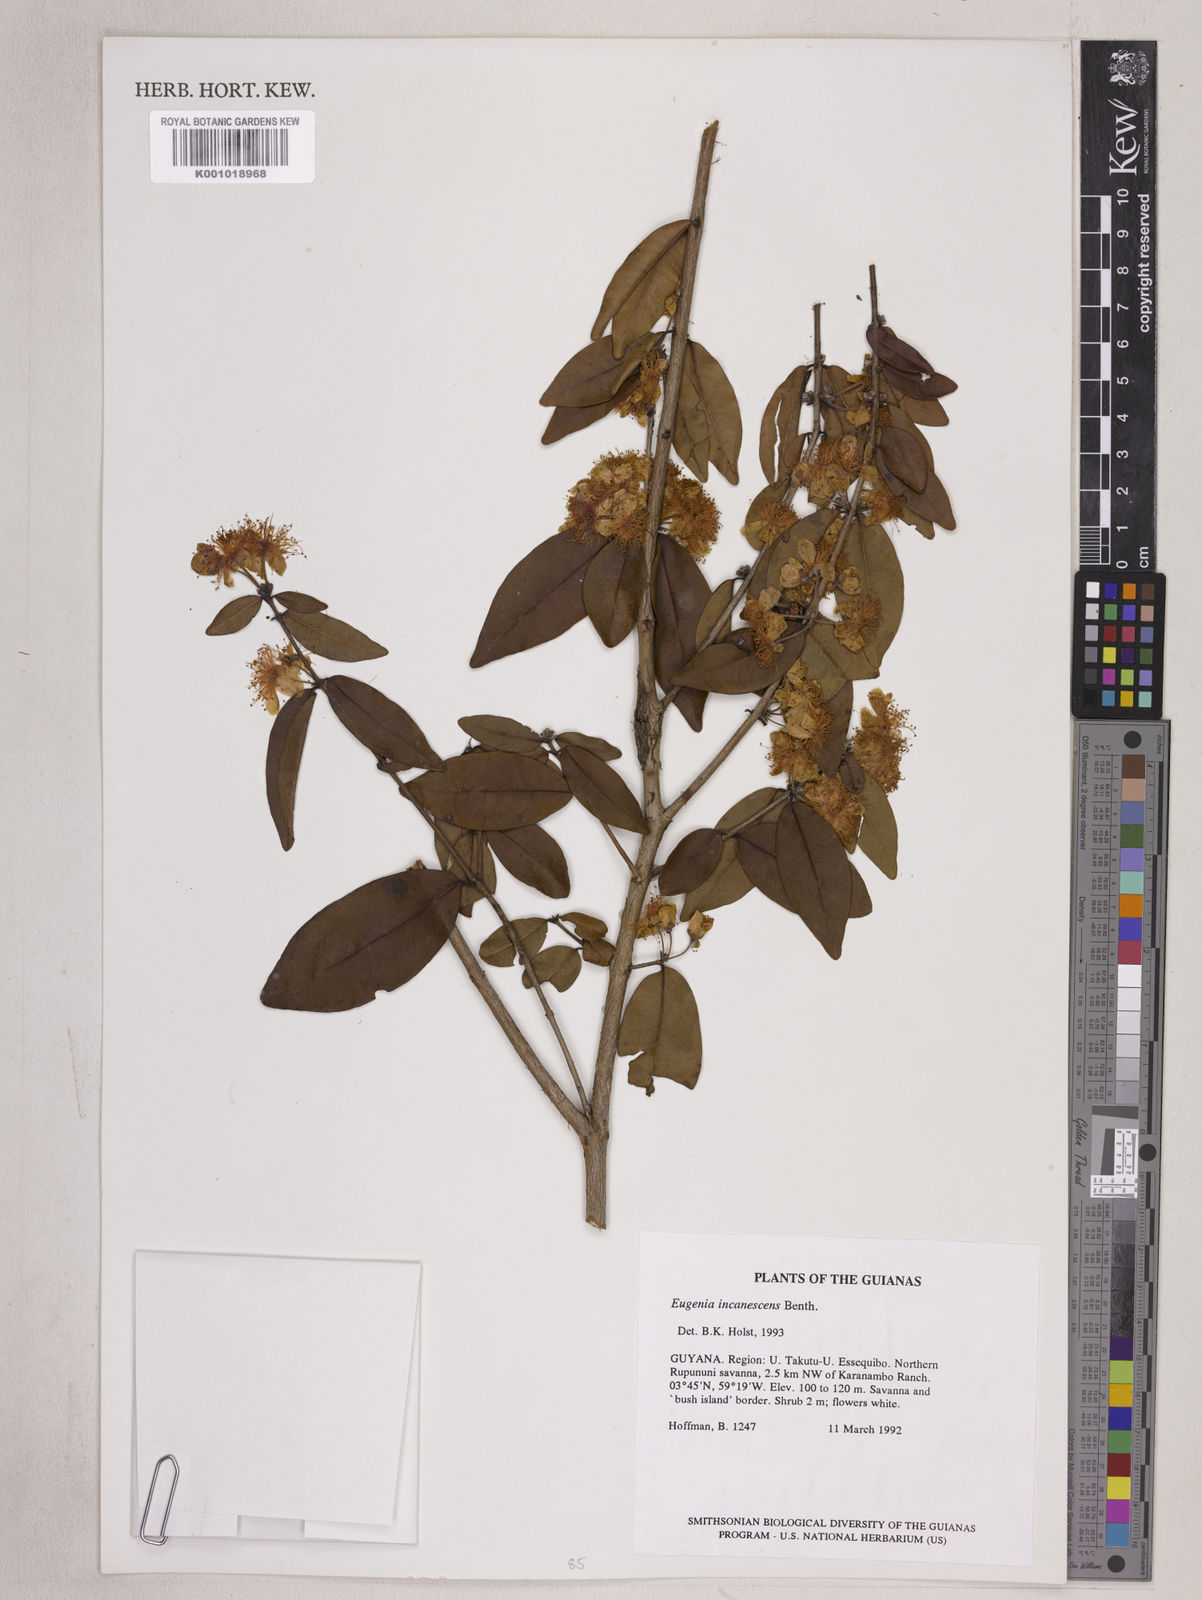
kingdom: Plantae
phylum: Tracheophyta
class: Magnoliopsida
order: Myrtales
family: Myrtaceae
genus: Eugenia
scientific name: Eugenia incanescens
